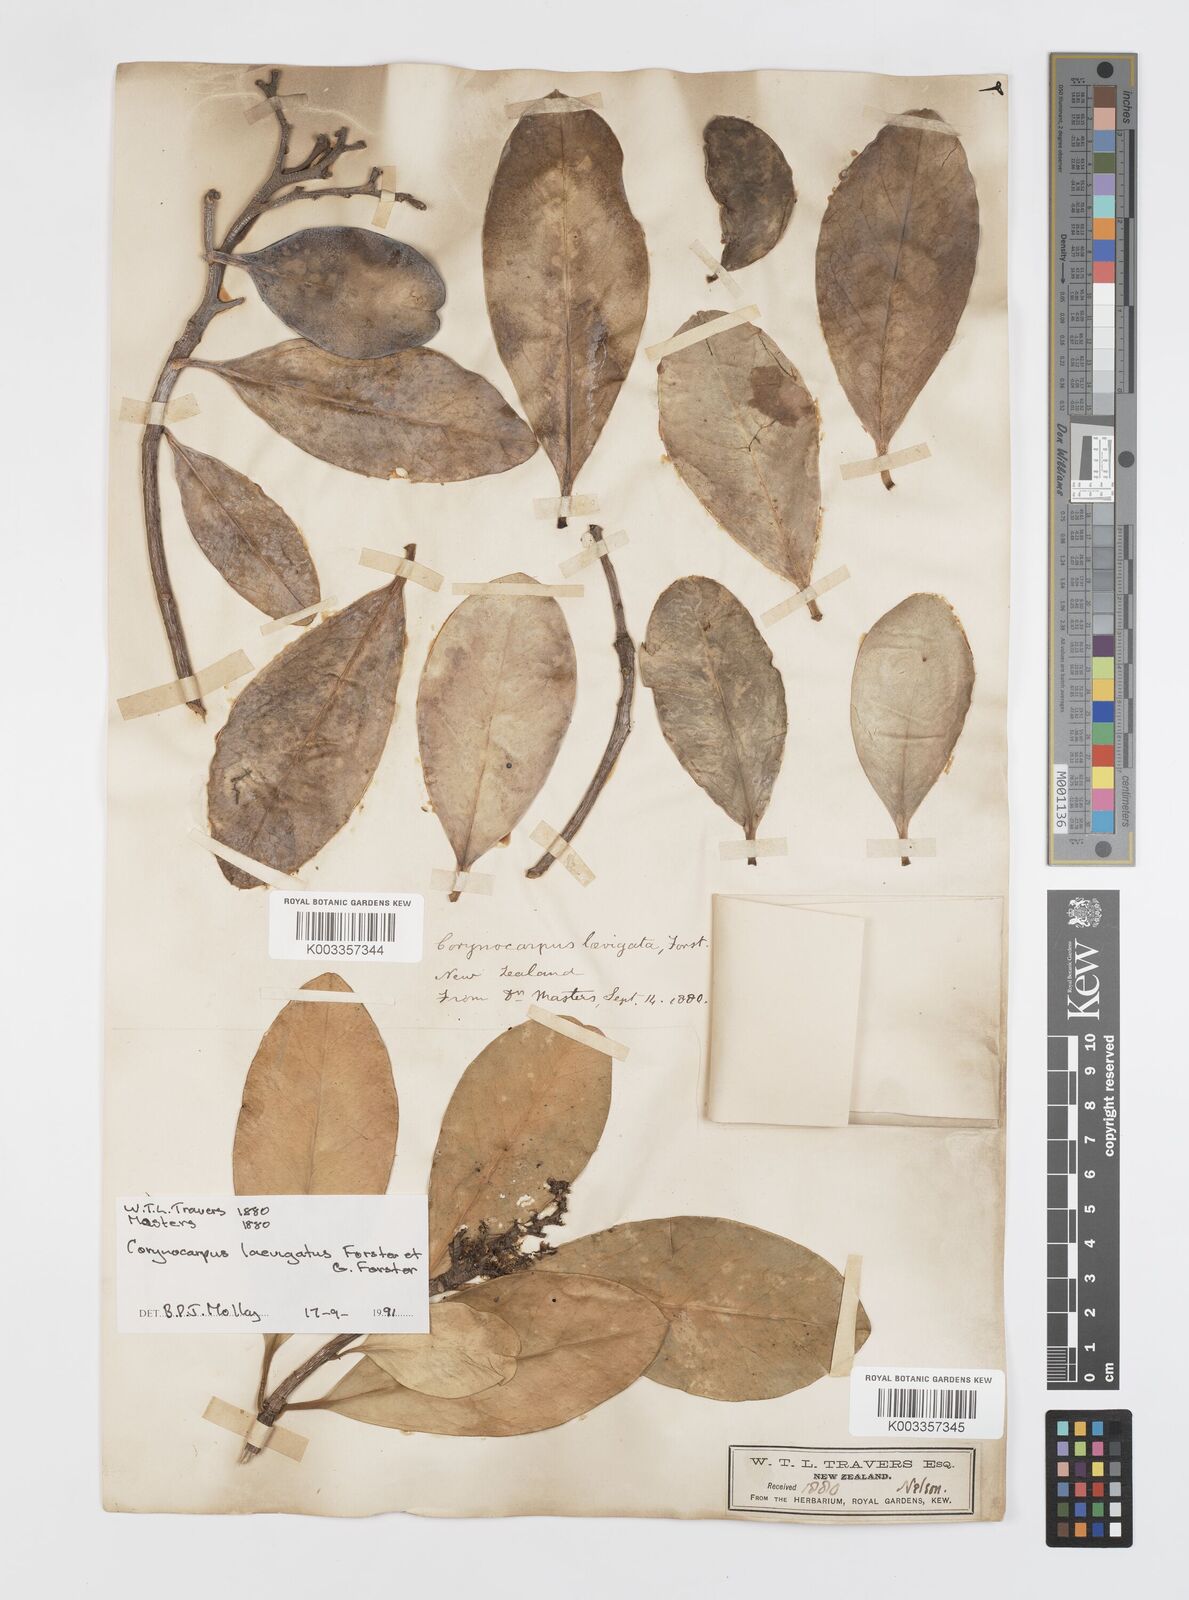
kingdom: Plantae
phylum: Tracheophyta
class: Magnoliopsida
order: Cucurbitales
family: Corynocarpaceae
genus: Corynocarpus
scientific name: Corynocarpus laevigatus
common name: New zealand laurel
